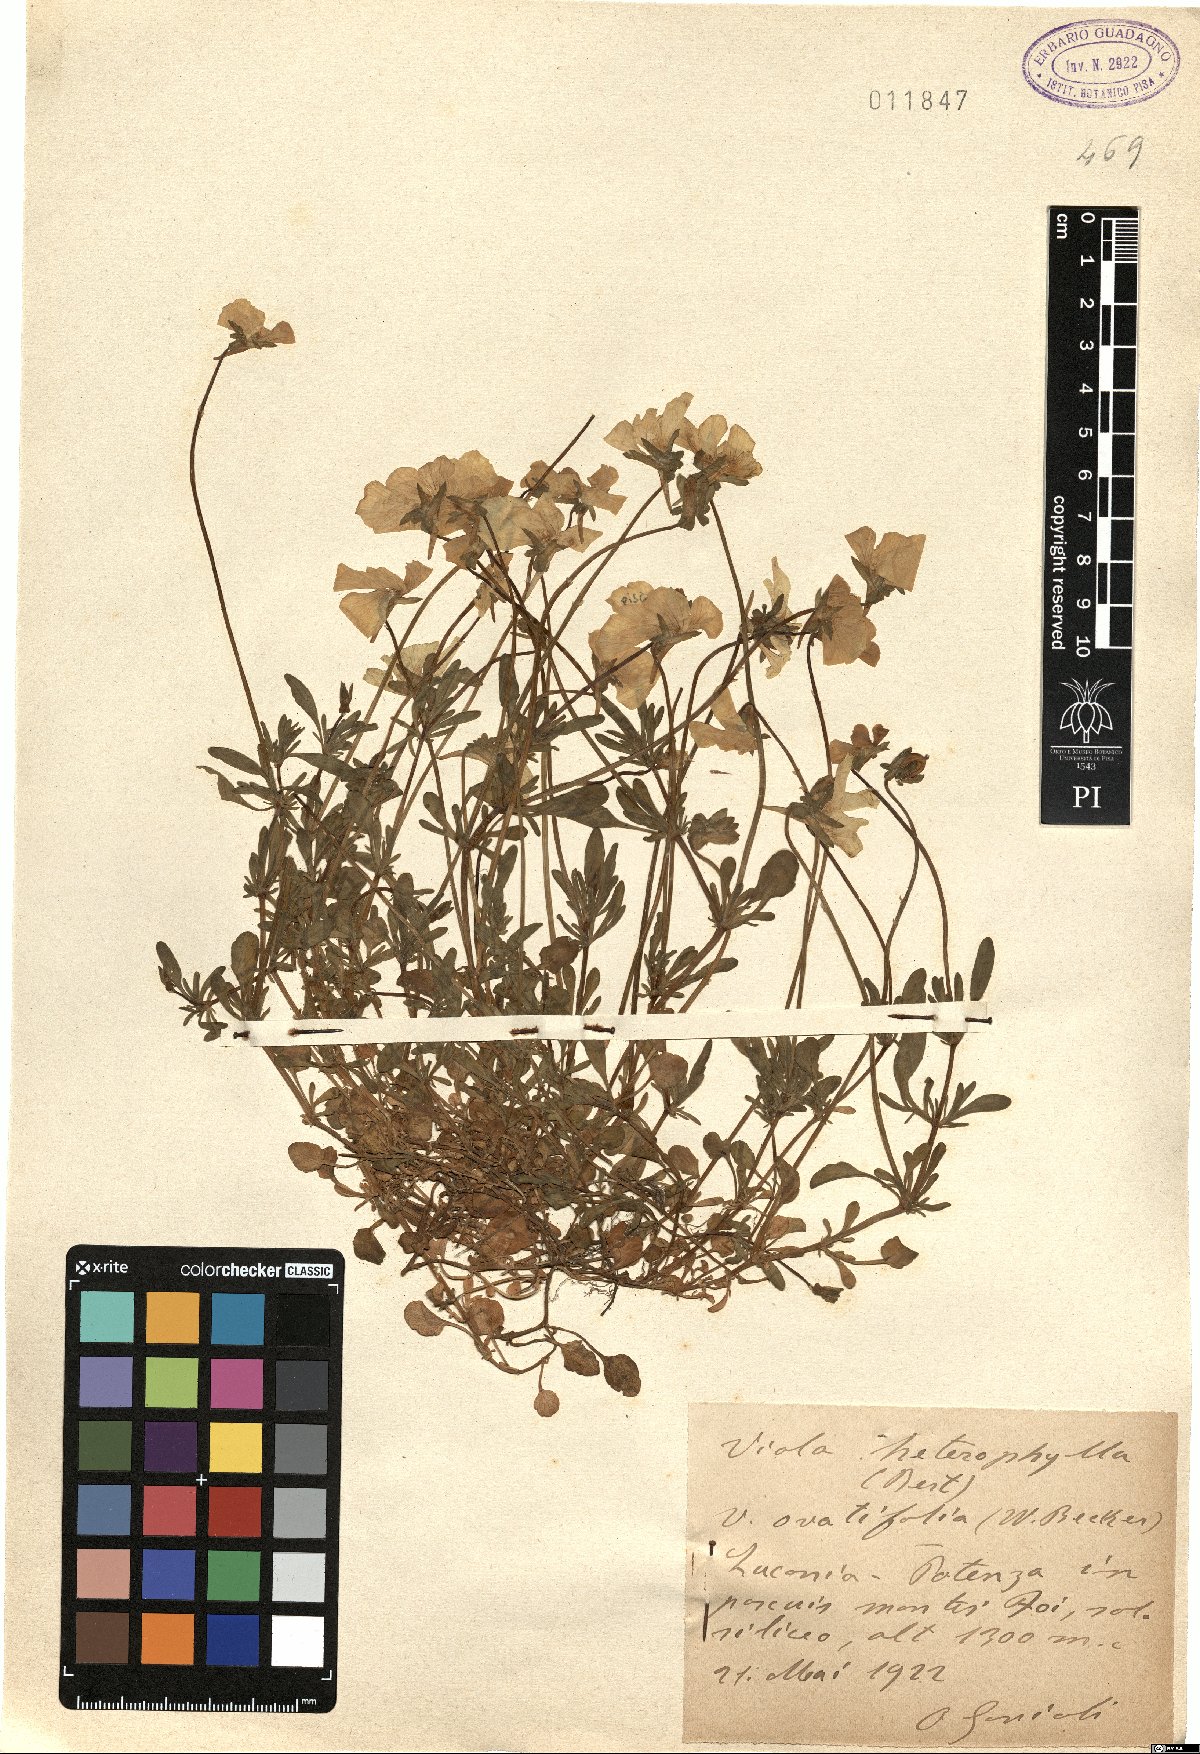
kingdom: Plantae
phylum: Tracheophyta
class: Magnoliopsida
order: Malpighiales
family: Violaceae
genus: Viola
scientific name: Viola heterophylla
